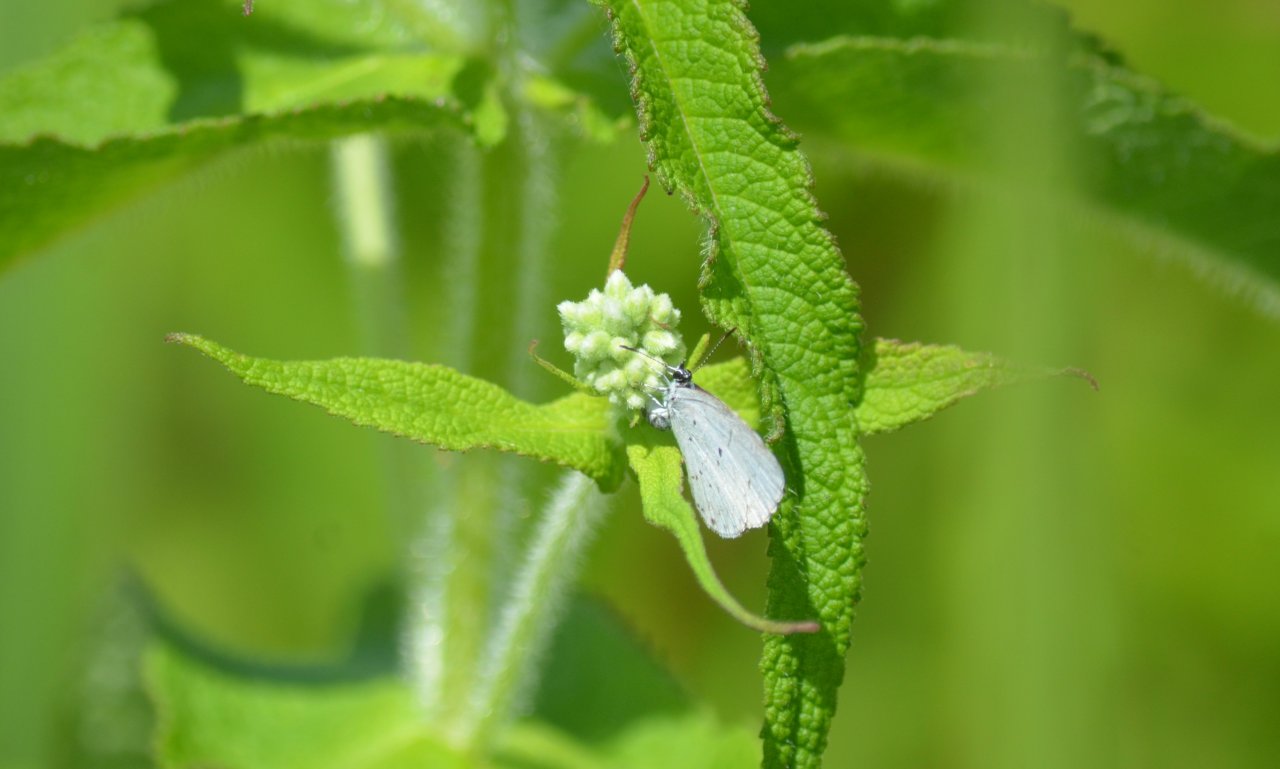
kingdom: Animalia
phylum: Arthropoda
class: Insecta
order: Lepidoptera
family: Lycaenidae
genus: Celastrina
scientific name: Celastrina
